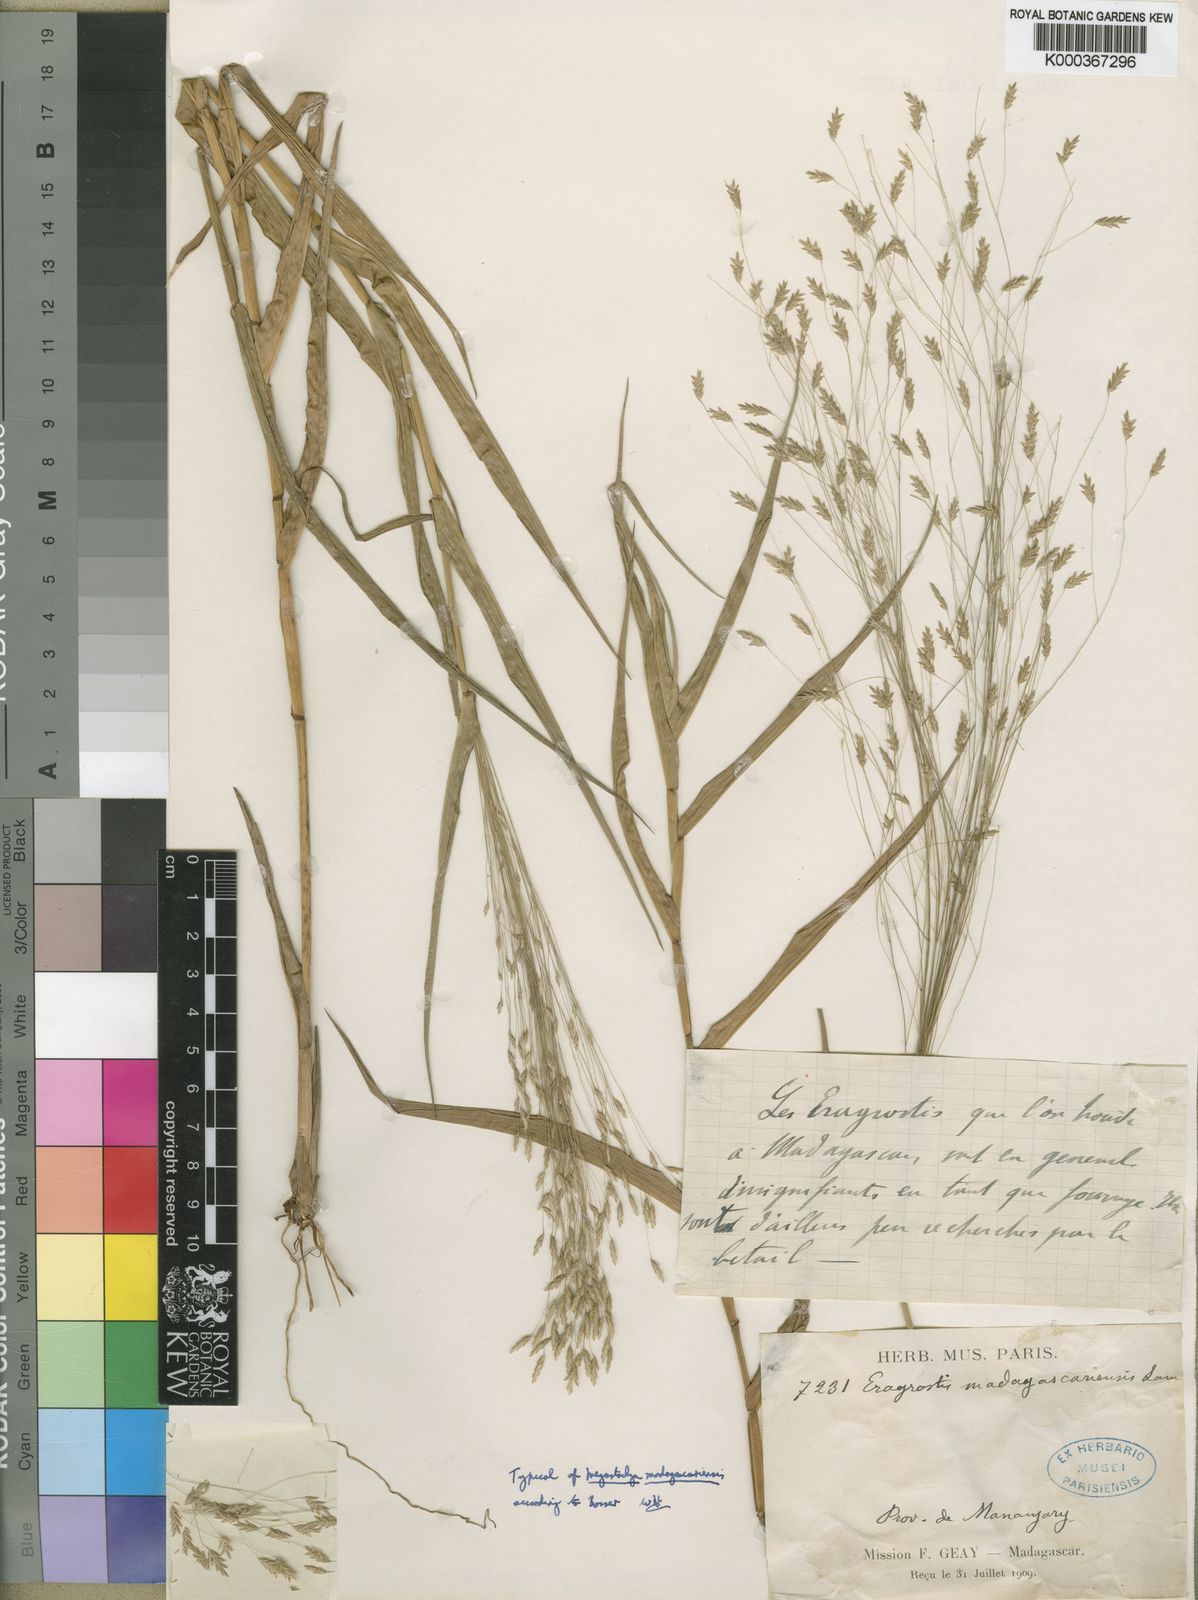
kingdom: Plantae
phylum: Tracheophyta
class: Liliopsida
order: Poales
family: Poaceae
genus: Megastachya
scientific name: Megastachya madagascariensis
